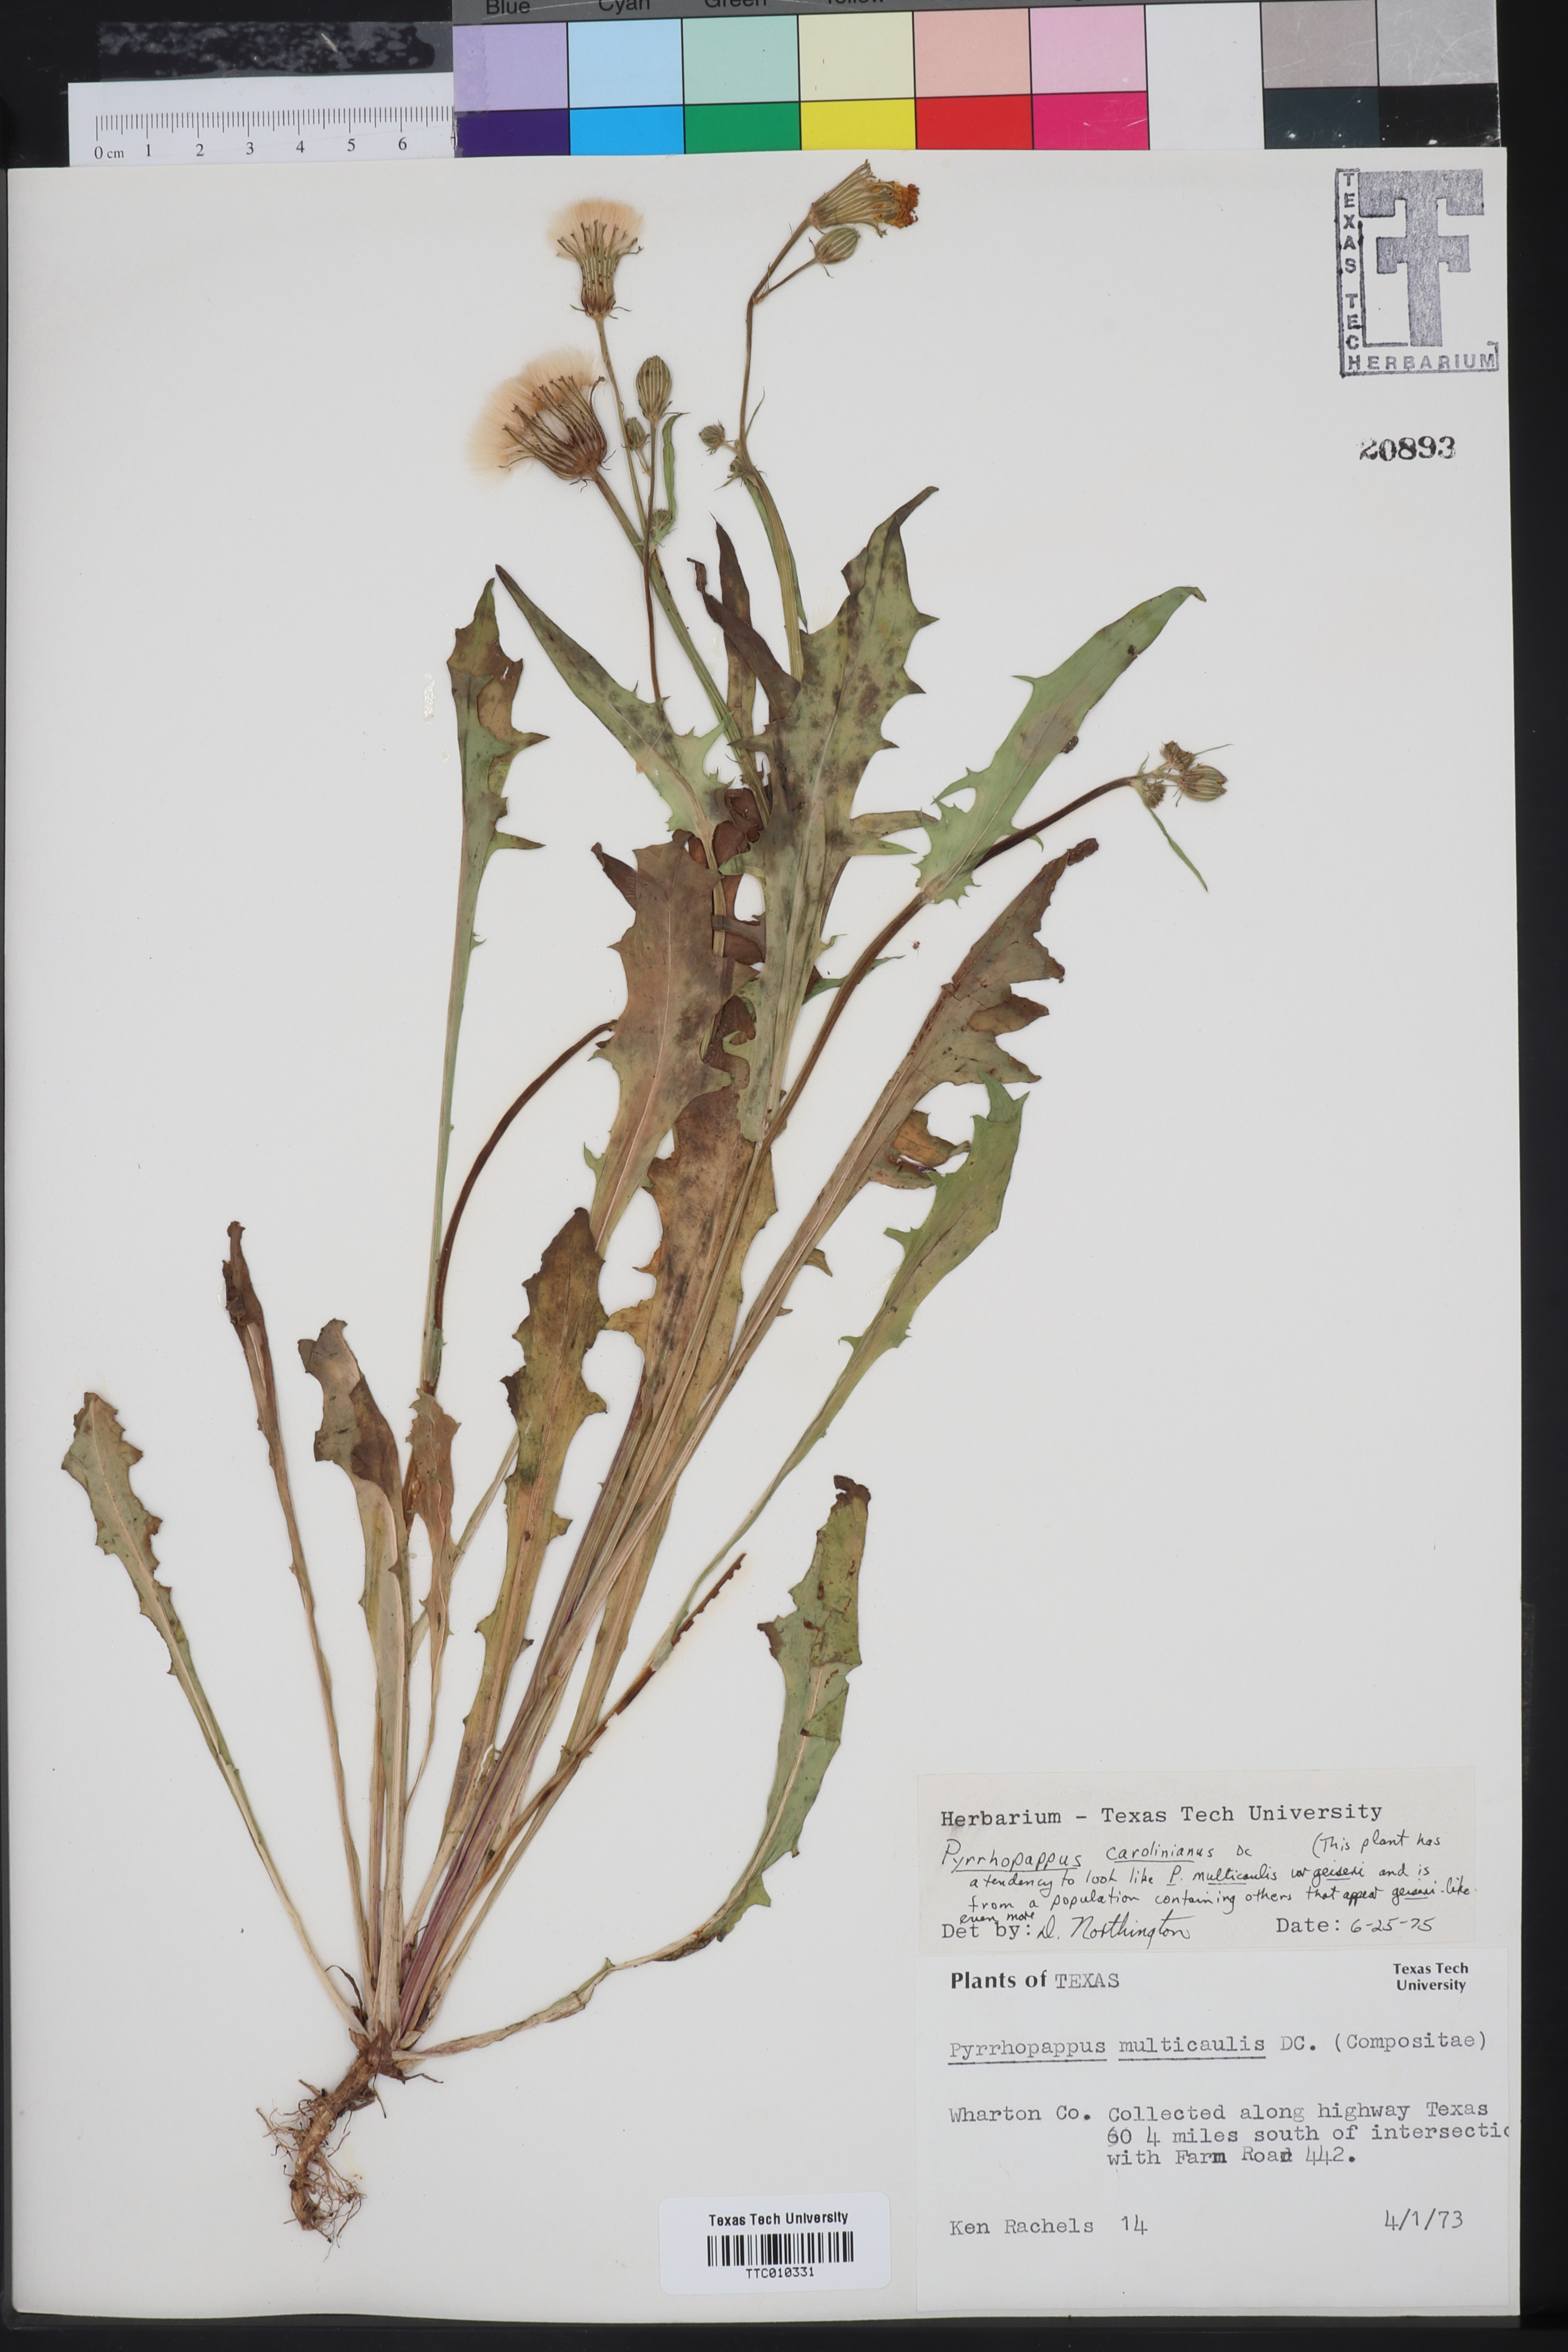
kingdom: Plantae
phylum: Tracheophyta
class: Magnoliopsida
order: Asterales
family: Asteraceae
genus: Pyrrhopappus
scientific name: Pyrrhopappus carolinianus
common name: Carolina desert-chicory
